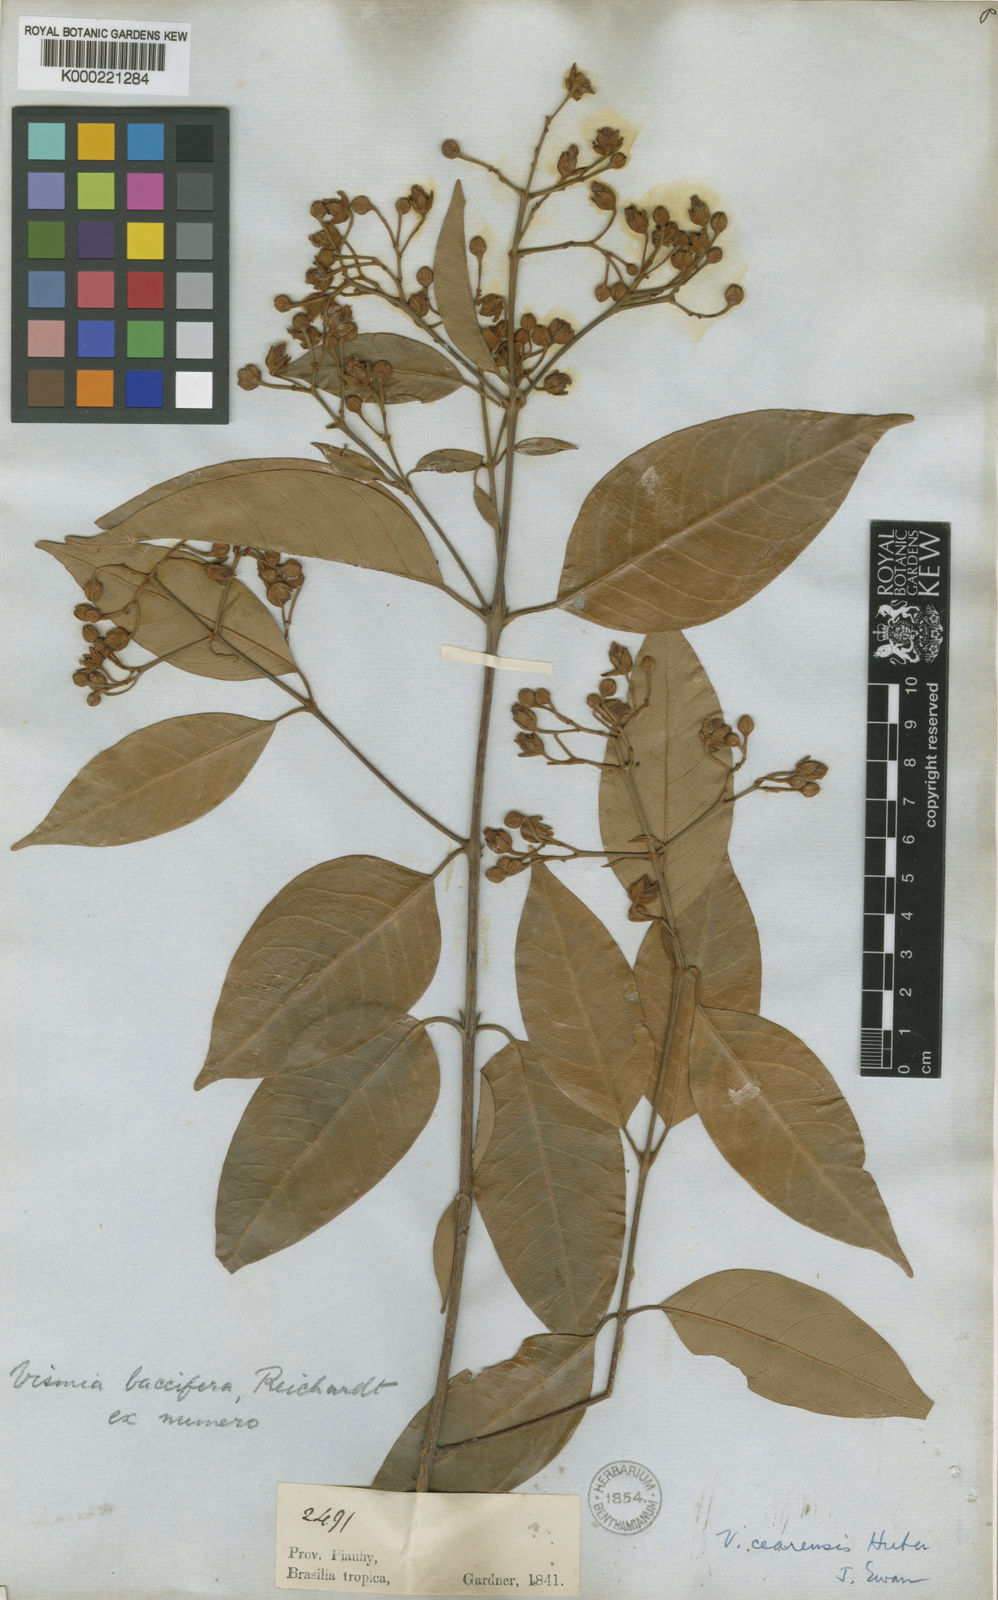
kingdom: Plantae
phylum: Tracheophyta
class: Magnoliopsida
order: Malpighiales
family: Hypericaceae
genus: Vismia
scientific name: Vismia guianensis
